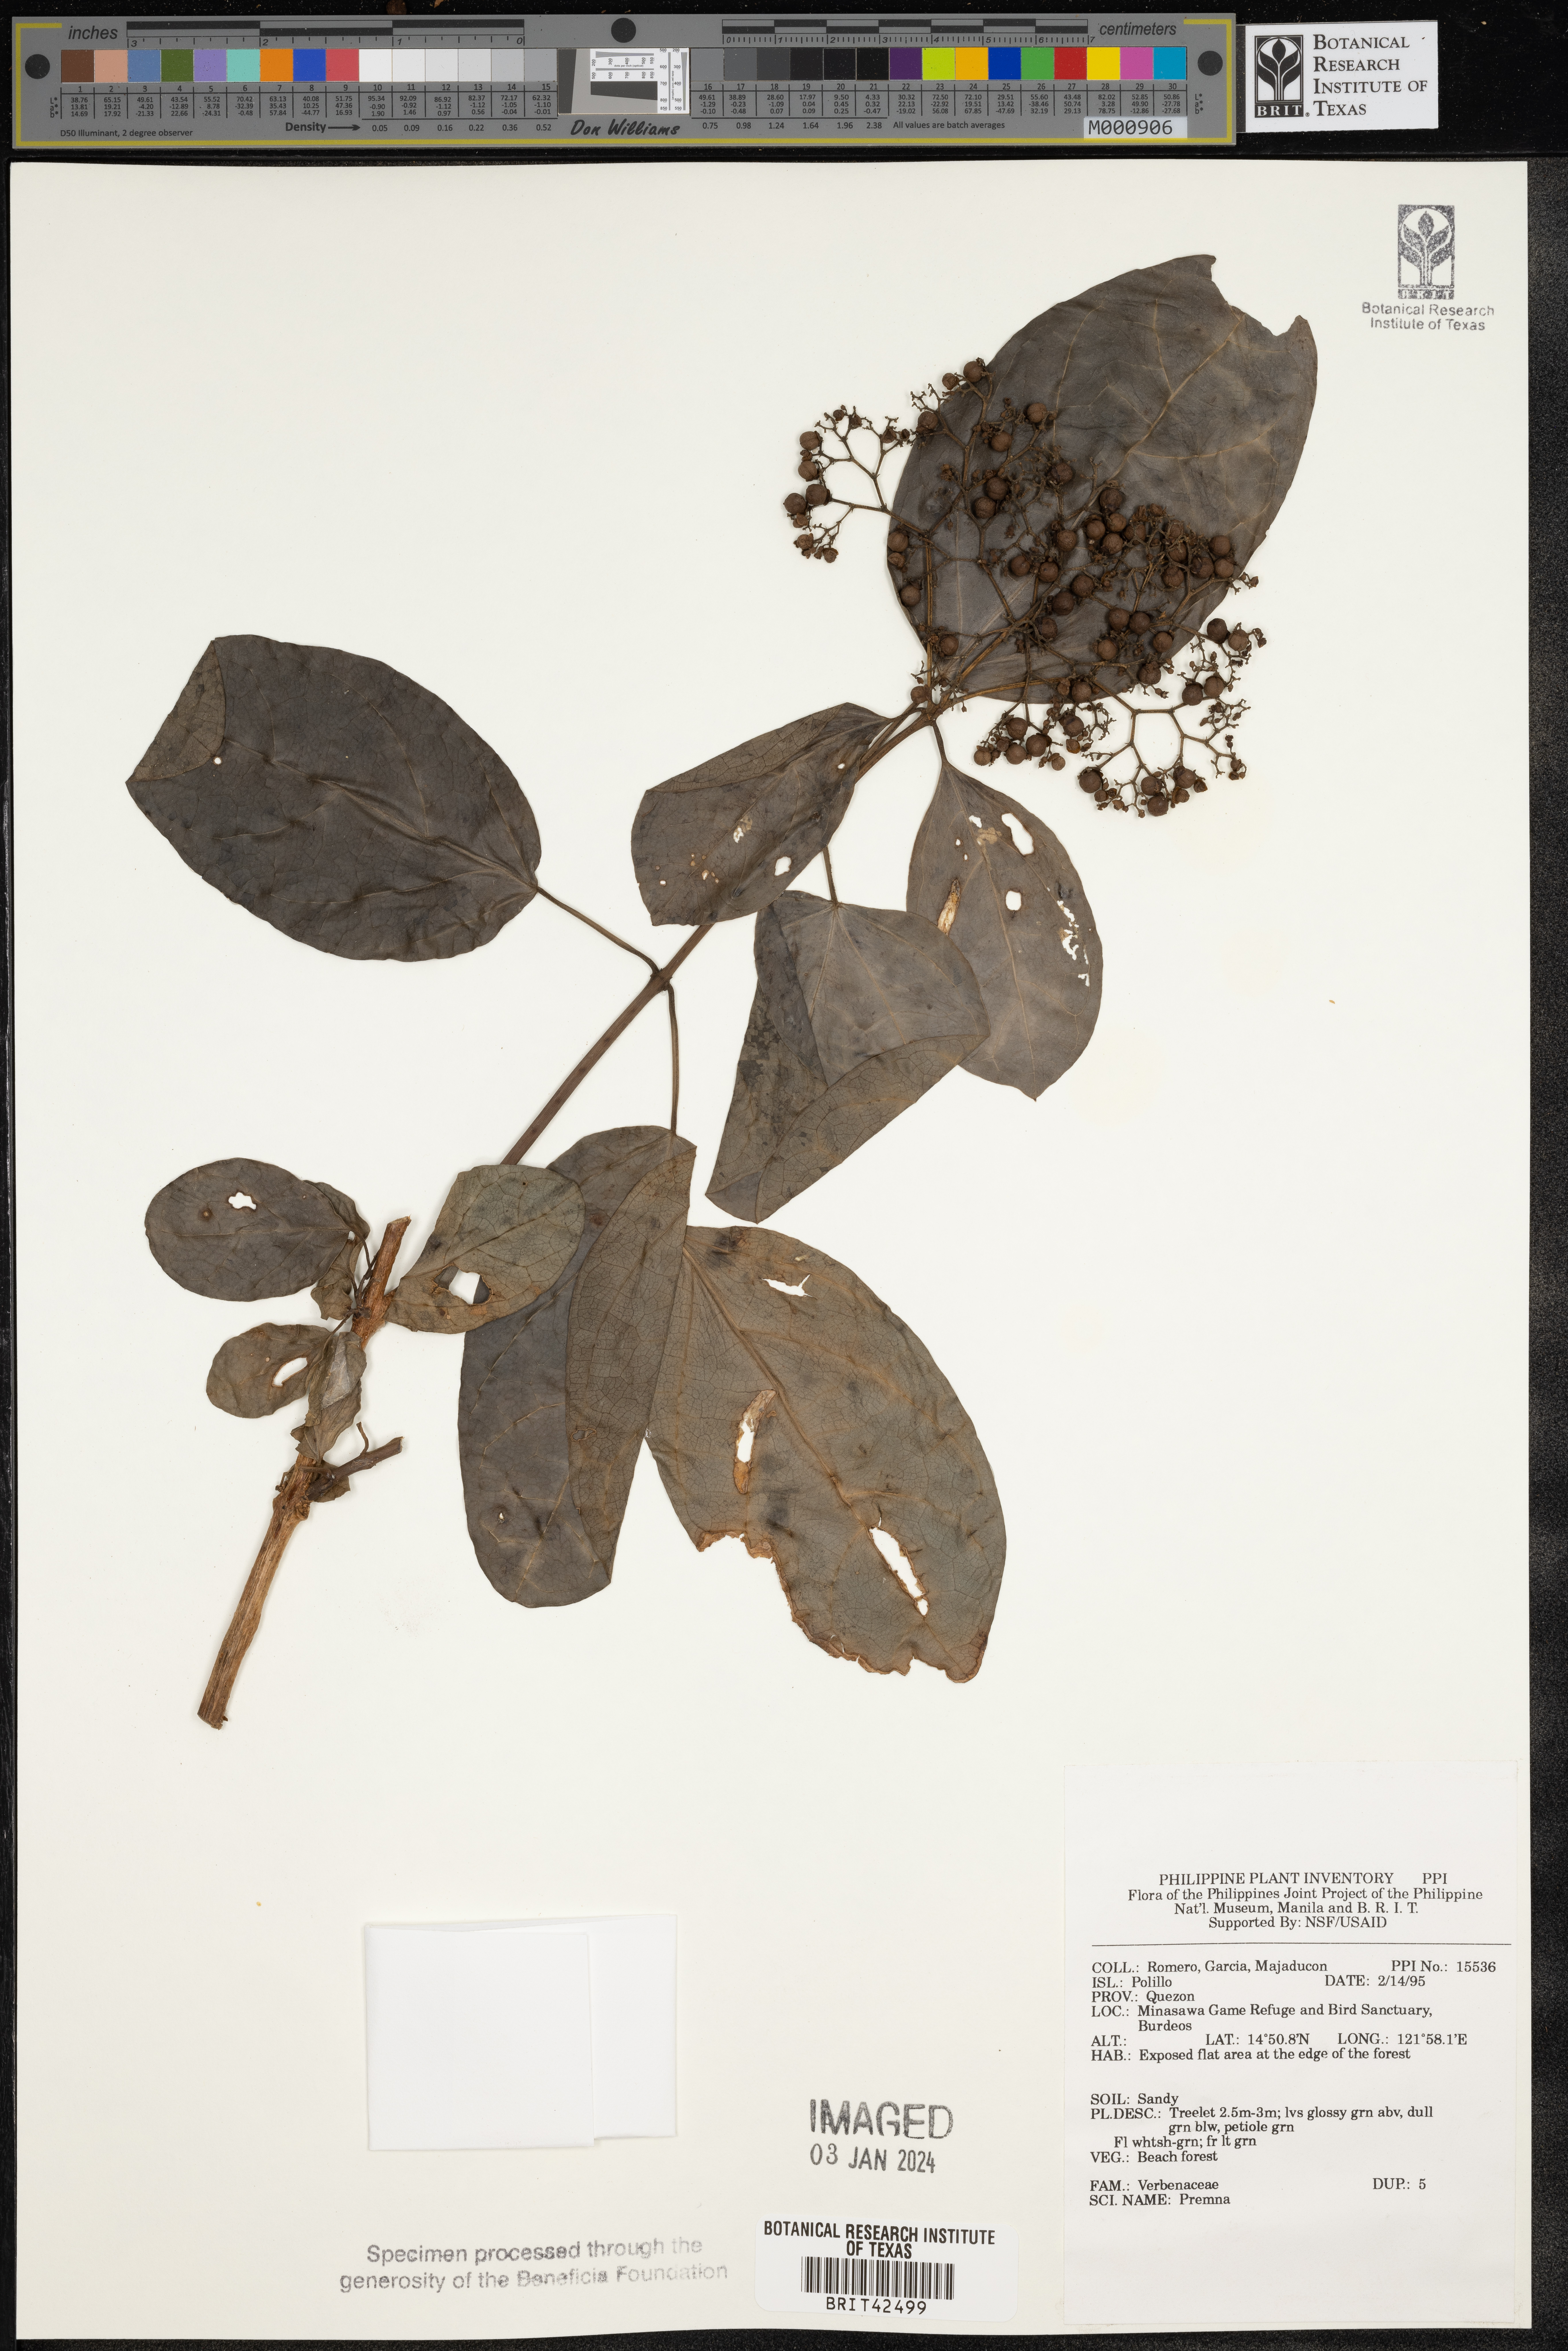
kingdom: Plantae
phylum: Tracheophyta
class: Magnoliopsida
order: Lamiales
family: Lamiaceae
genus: Premna
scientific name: Premna
